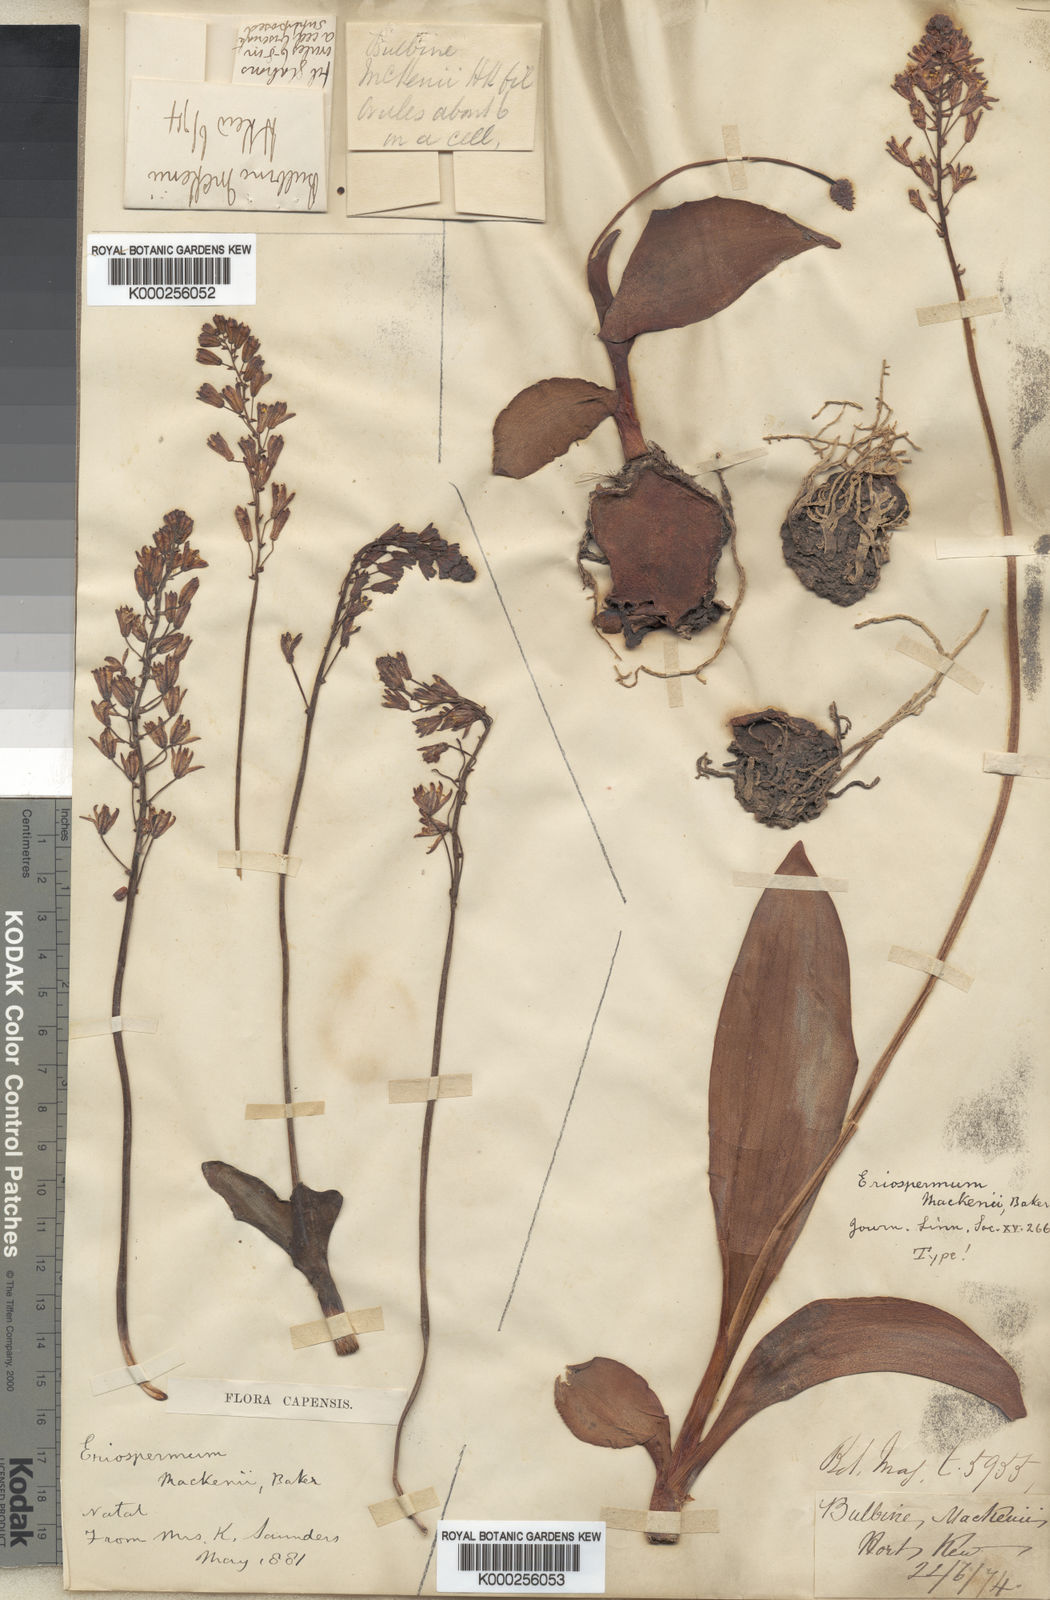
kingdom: Plantae
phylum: Tracheophyta
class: Liliopsida
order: Asparagales
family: Asparagaceae
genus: Eriospermum
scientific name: Eriospermum mackenii
